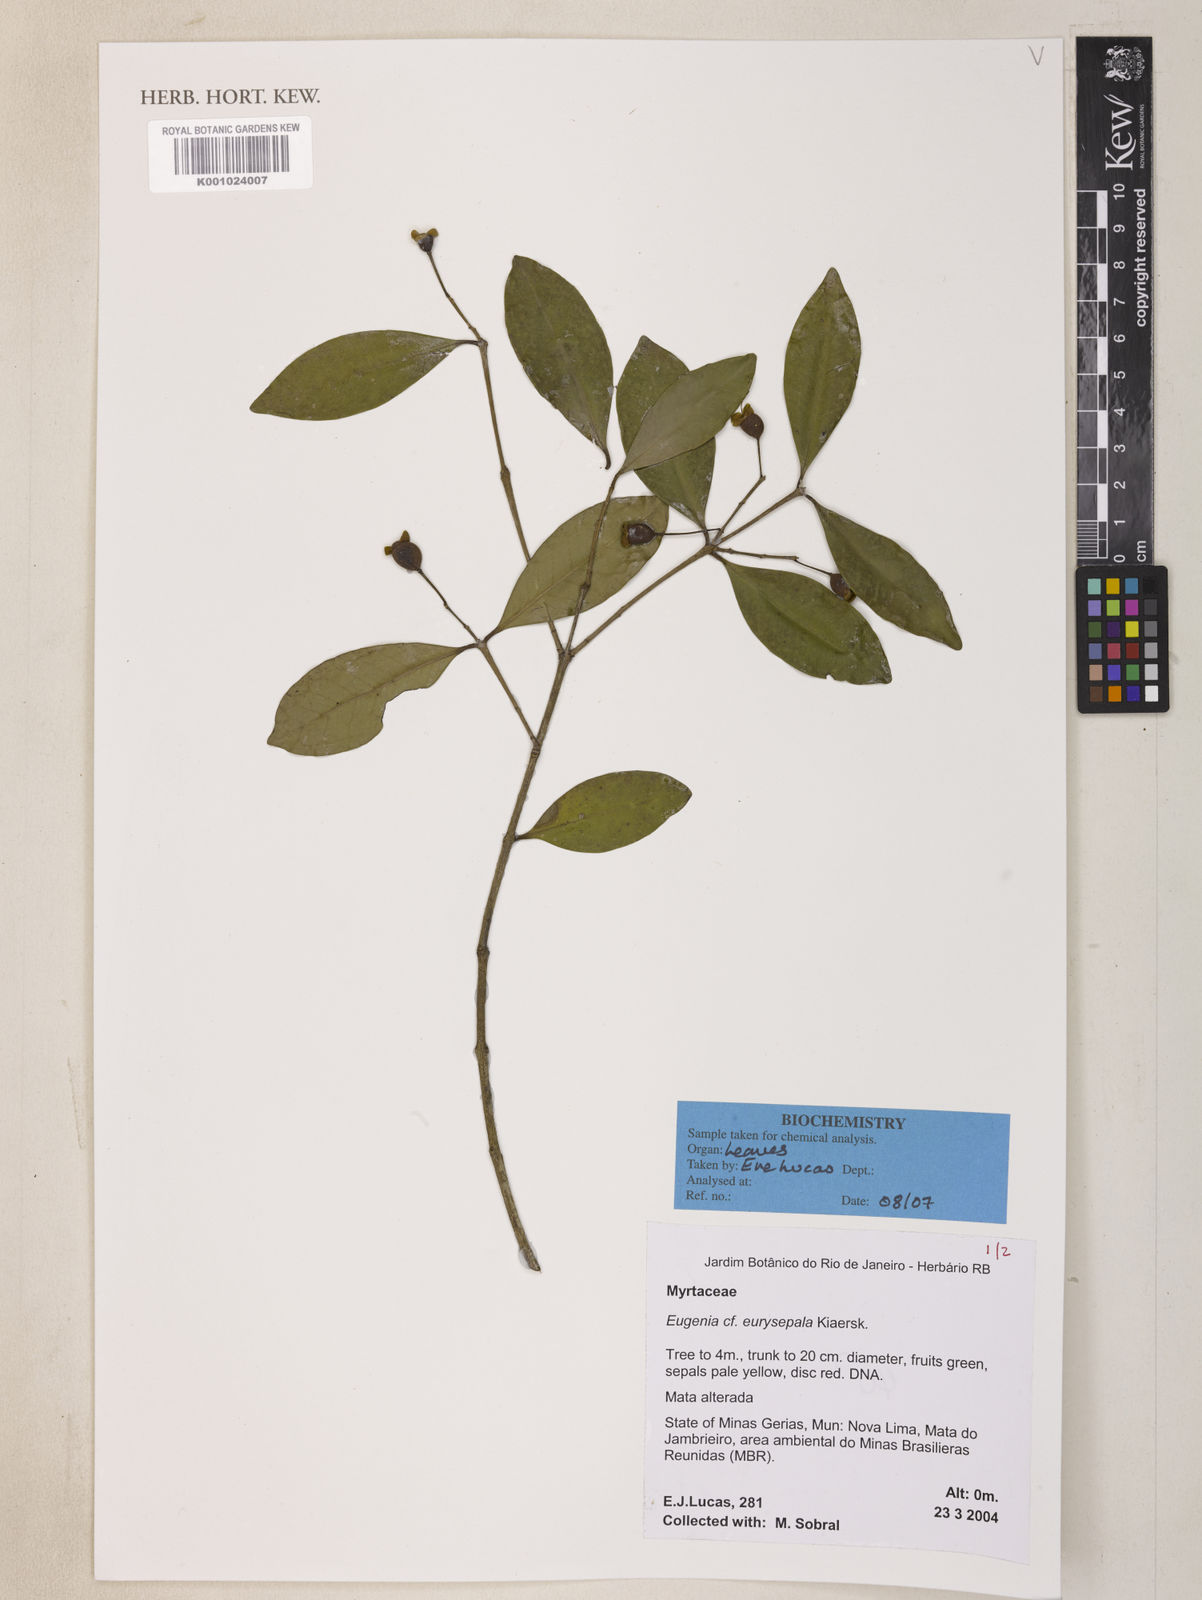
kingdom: Plantae
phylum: Tracheophyta
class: Magnoliopsida
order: Myrtales
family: Myrtaceae
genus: Eugenia
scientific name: Eugenia nutans
